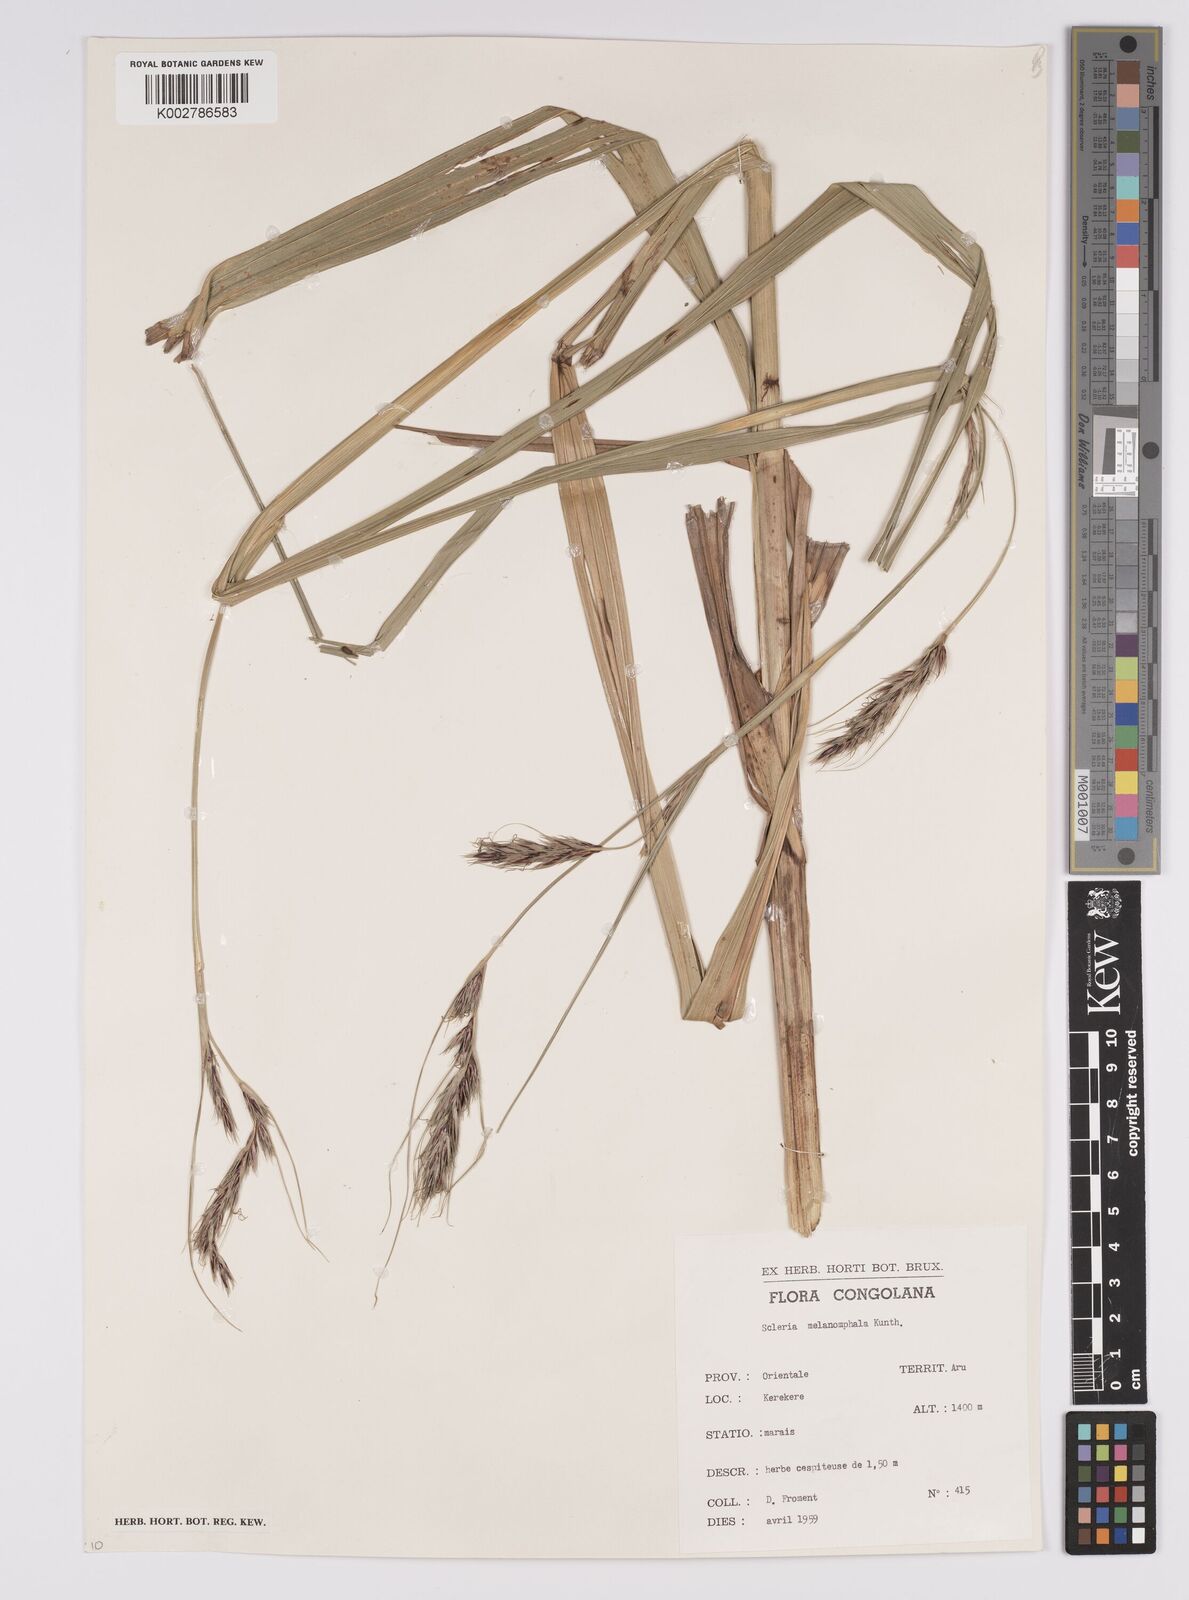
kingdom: Plantae
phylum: Tracheophyta
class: Liliopsida
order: Poales
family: Cyperaceae
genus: Scleria
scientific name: Scleria melanomphala
